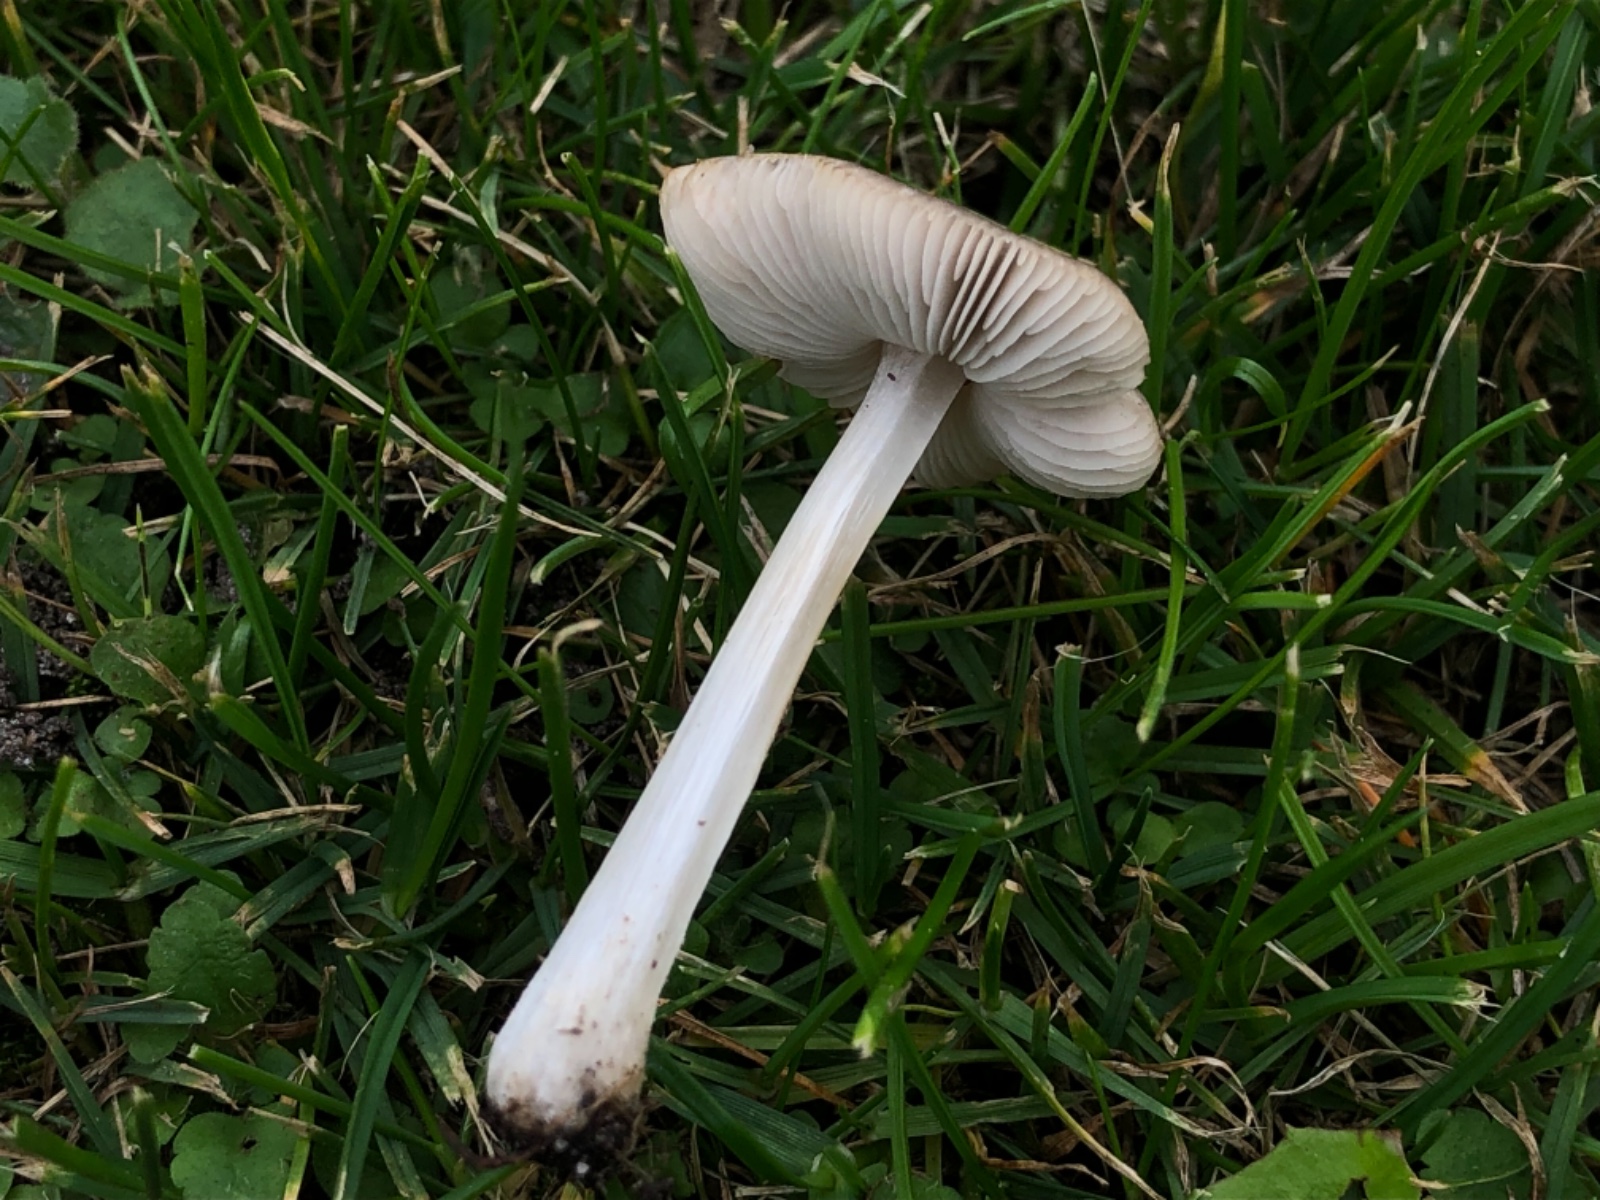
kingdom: Fungi
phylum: Basidiomycota
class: Agaricomycetes
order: Agaricales
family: Pluteaceae
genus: Pluteus
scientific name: Pluteus cinereofuscus
